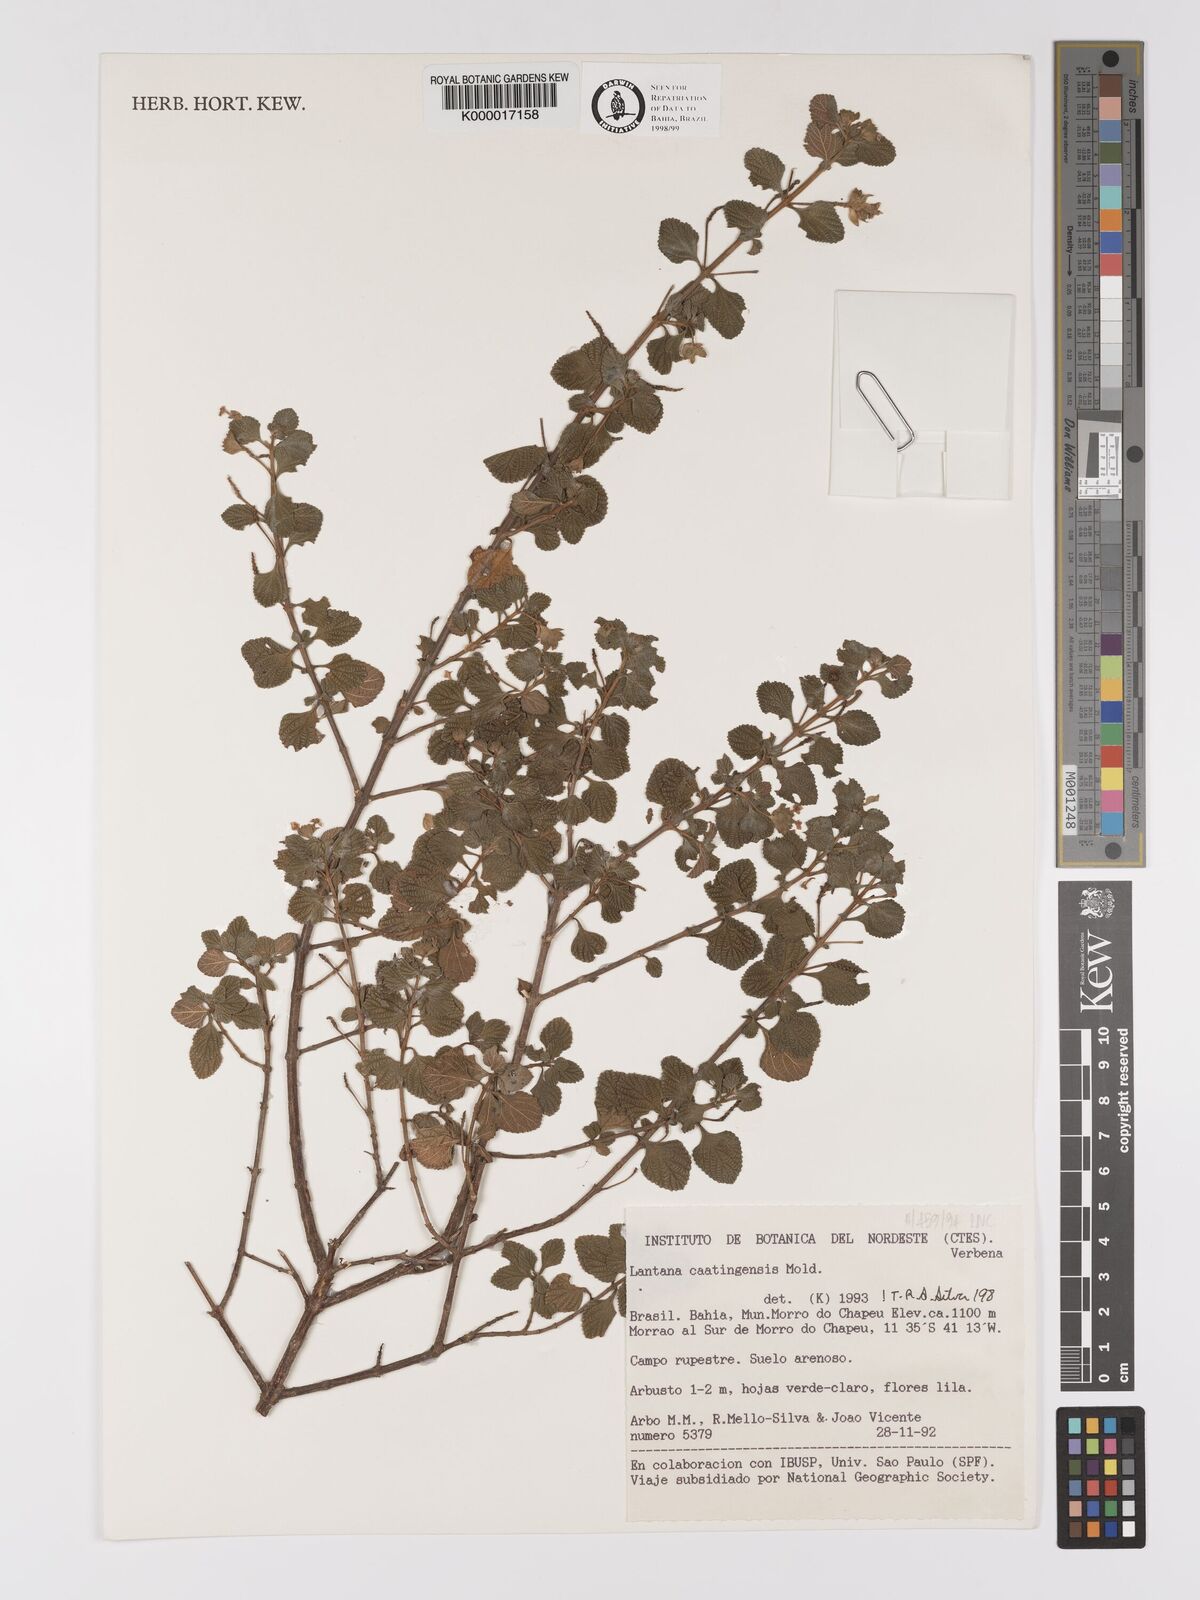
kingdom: Plantae
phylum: Tracheophyta
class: Magnoliopsida
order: Lamiales
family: Verbenaceae
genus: Lantana
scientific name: Lantana caatingensis
